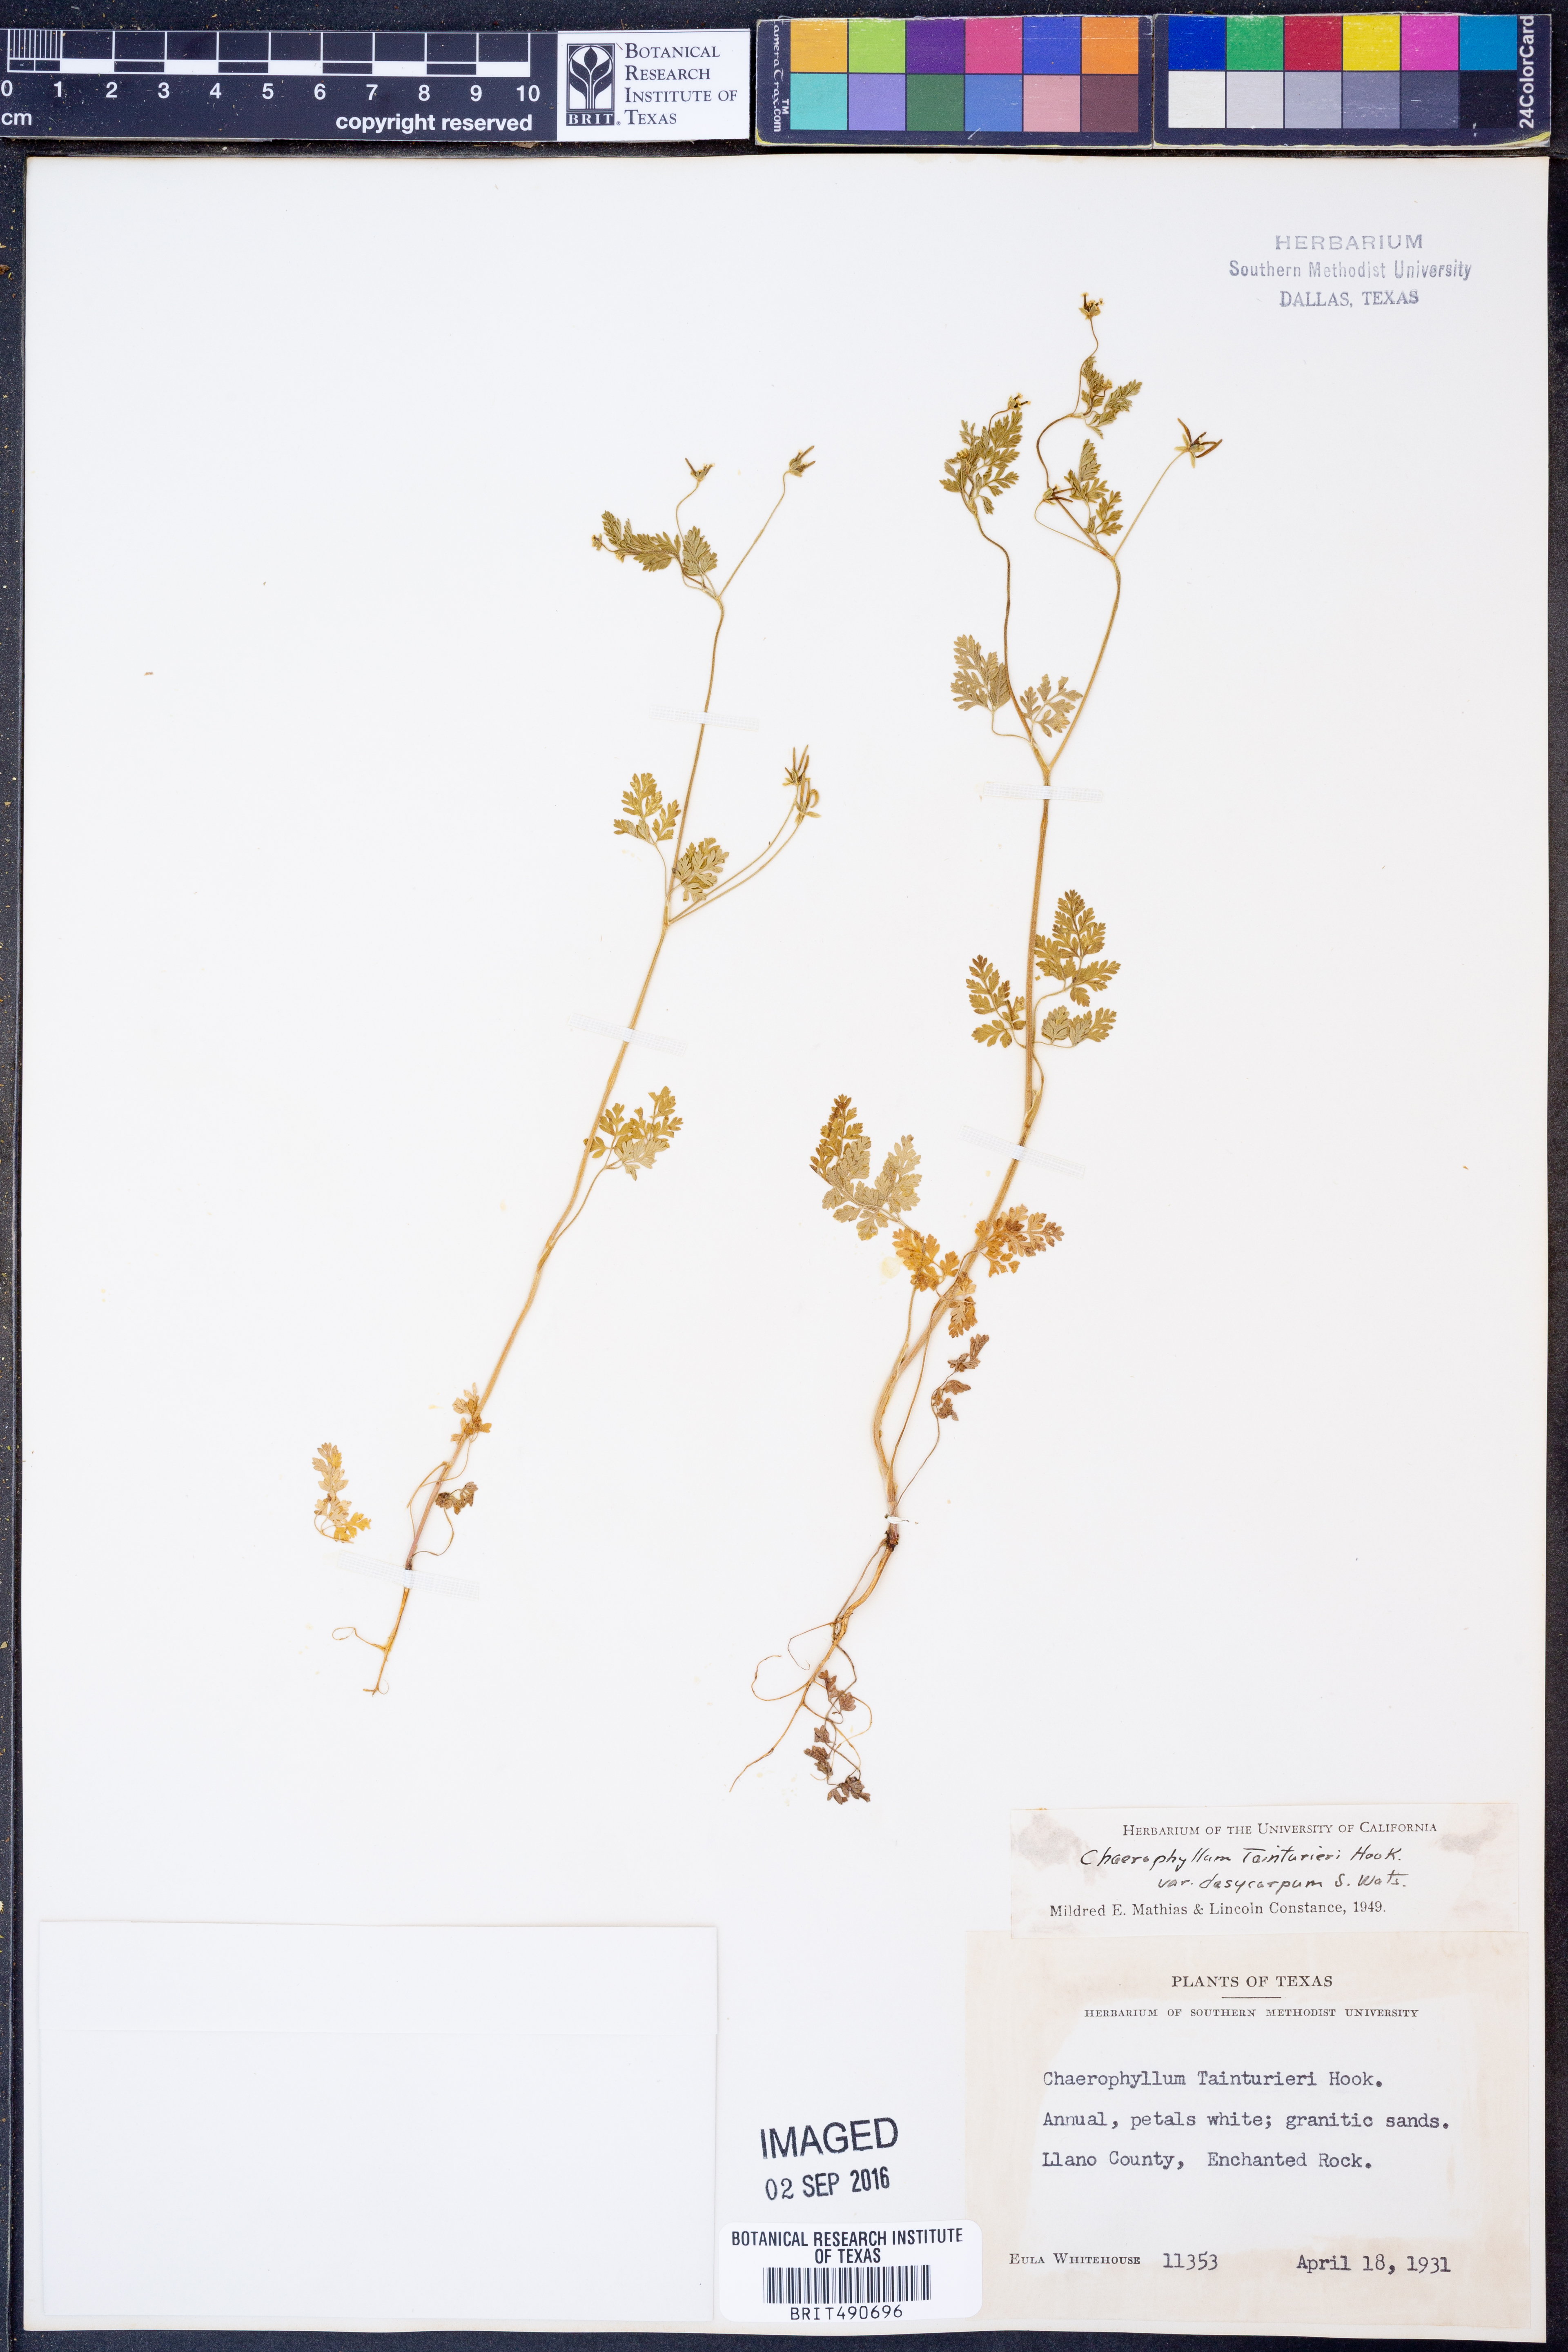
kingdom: Plantae
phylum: Tracheophyta
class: Magnoliopsida
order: Apiales
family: Apiaceae
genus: Chaerophyllum
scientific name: Chaerophyllum dasycarpum
